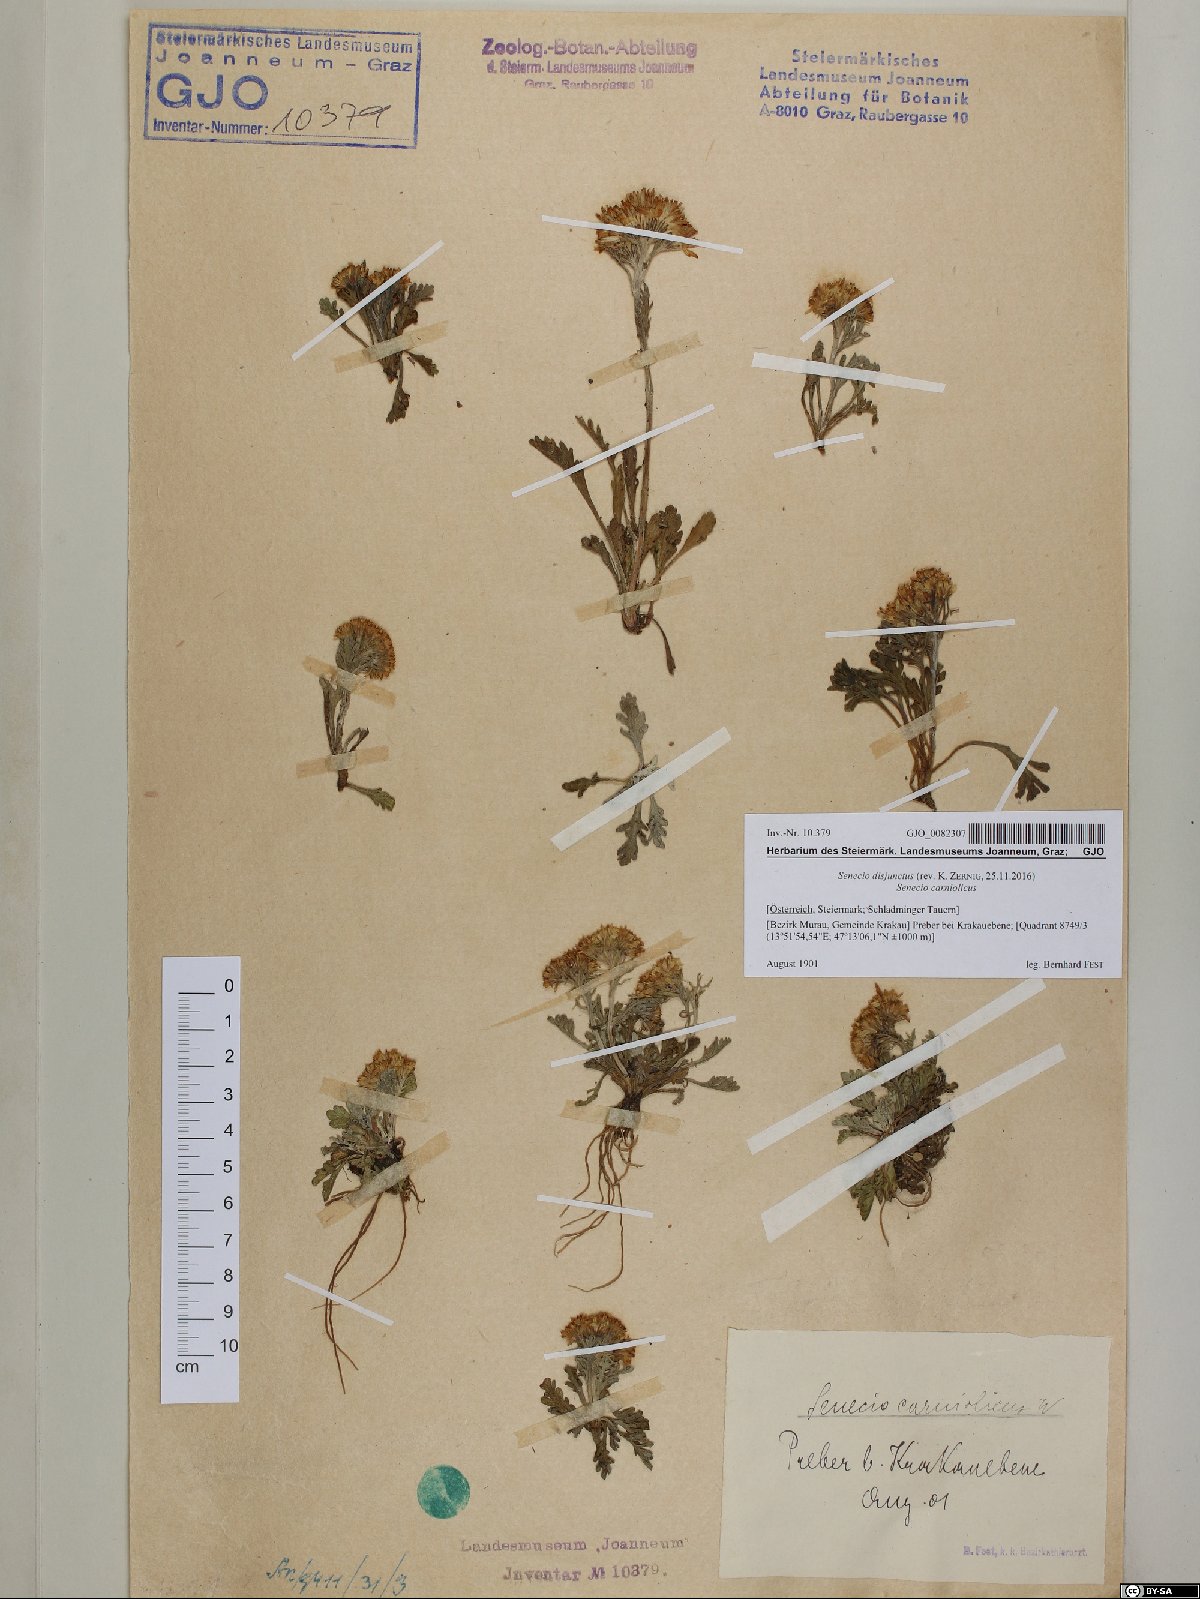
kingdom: Plantae
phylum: Tracheophyta
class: Magnoliopsida
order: Asterales
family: Asteraceae
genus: Jacobaea
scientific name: Jacobaea disjuncta
